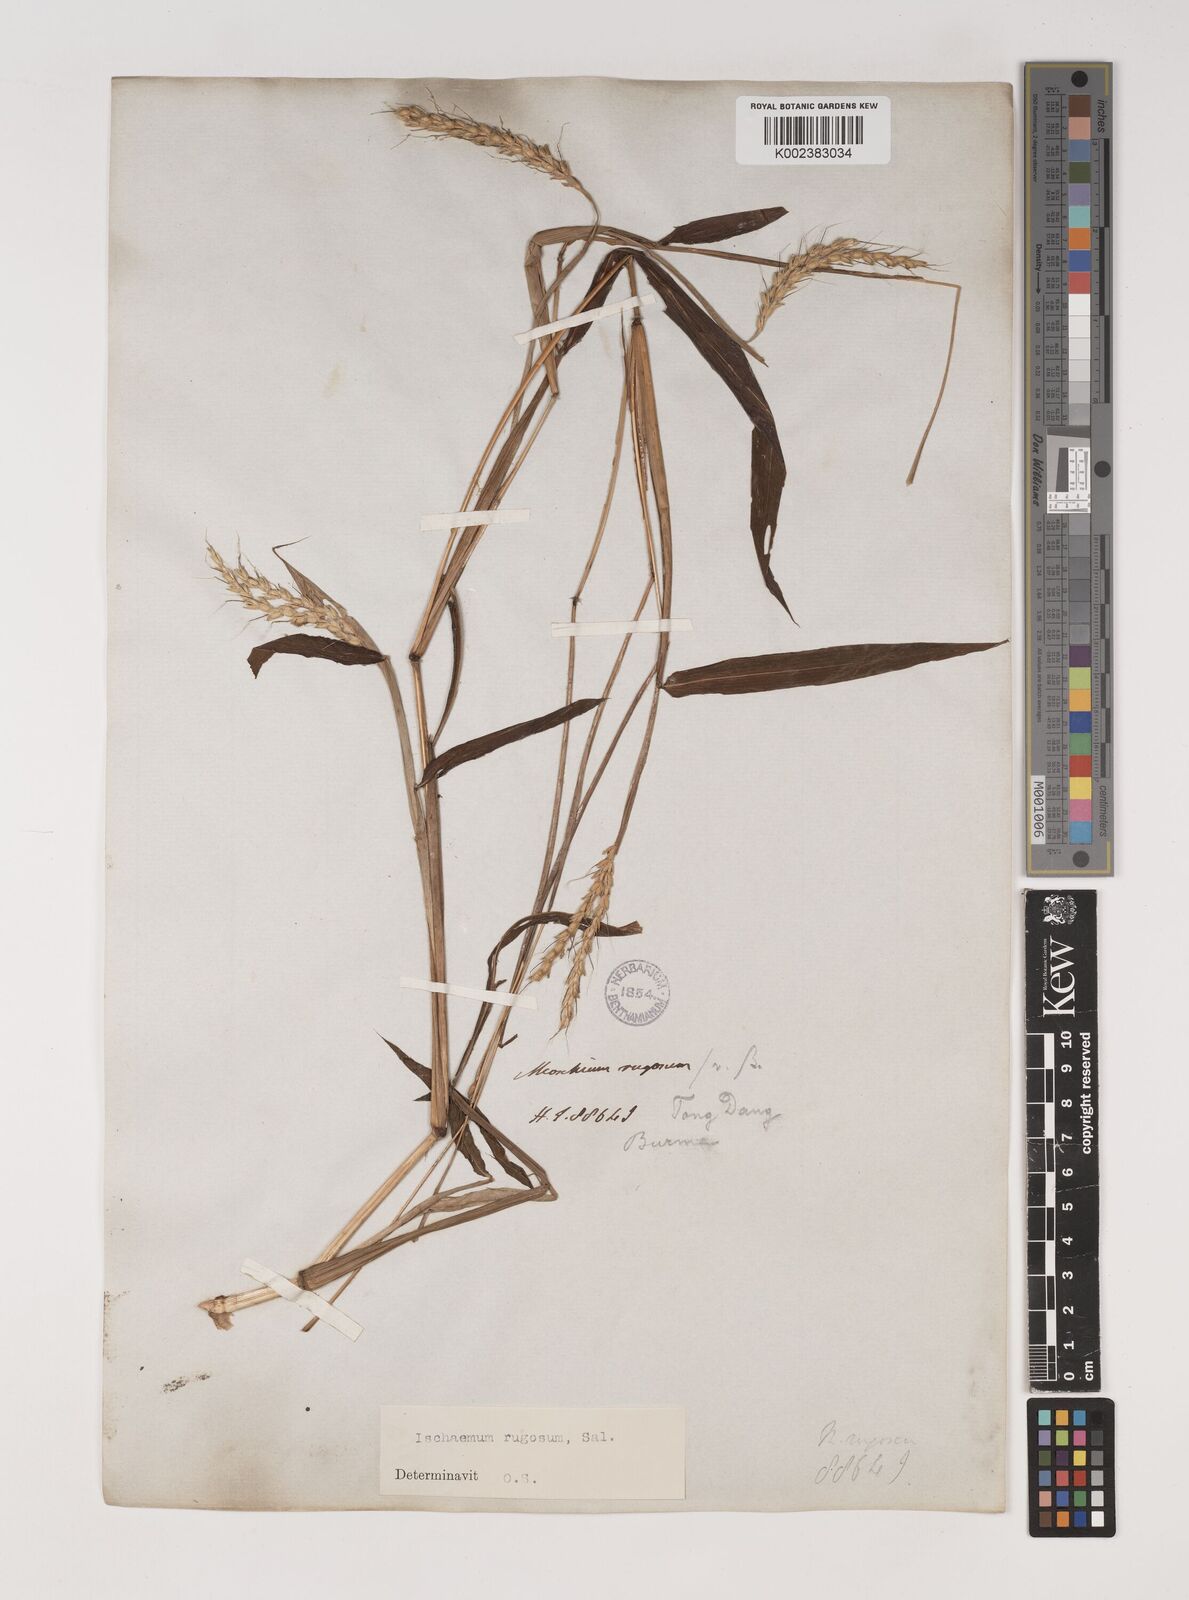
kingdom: Plantae
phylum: Tracheophyta
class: Liliopsida
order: Poales
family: Poaceae
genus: Ischaemum
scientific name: Ischaemum rugosum
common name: Saramatta grass
